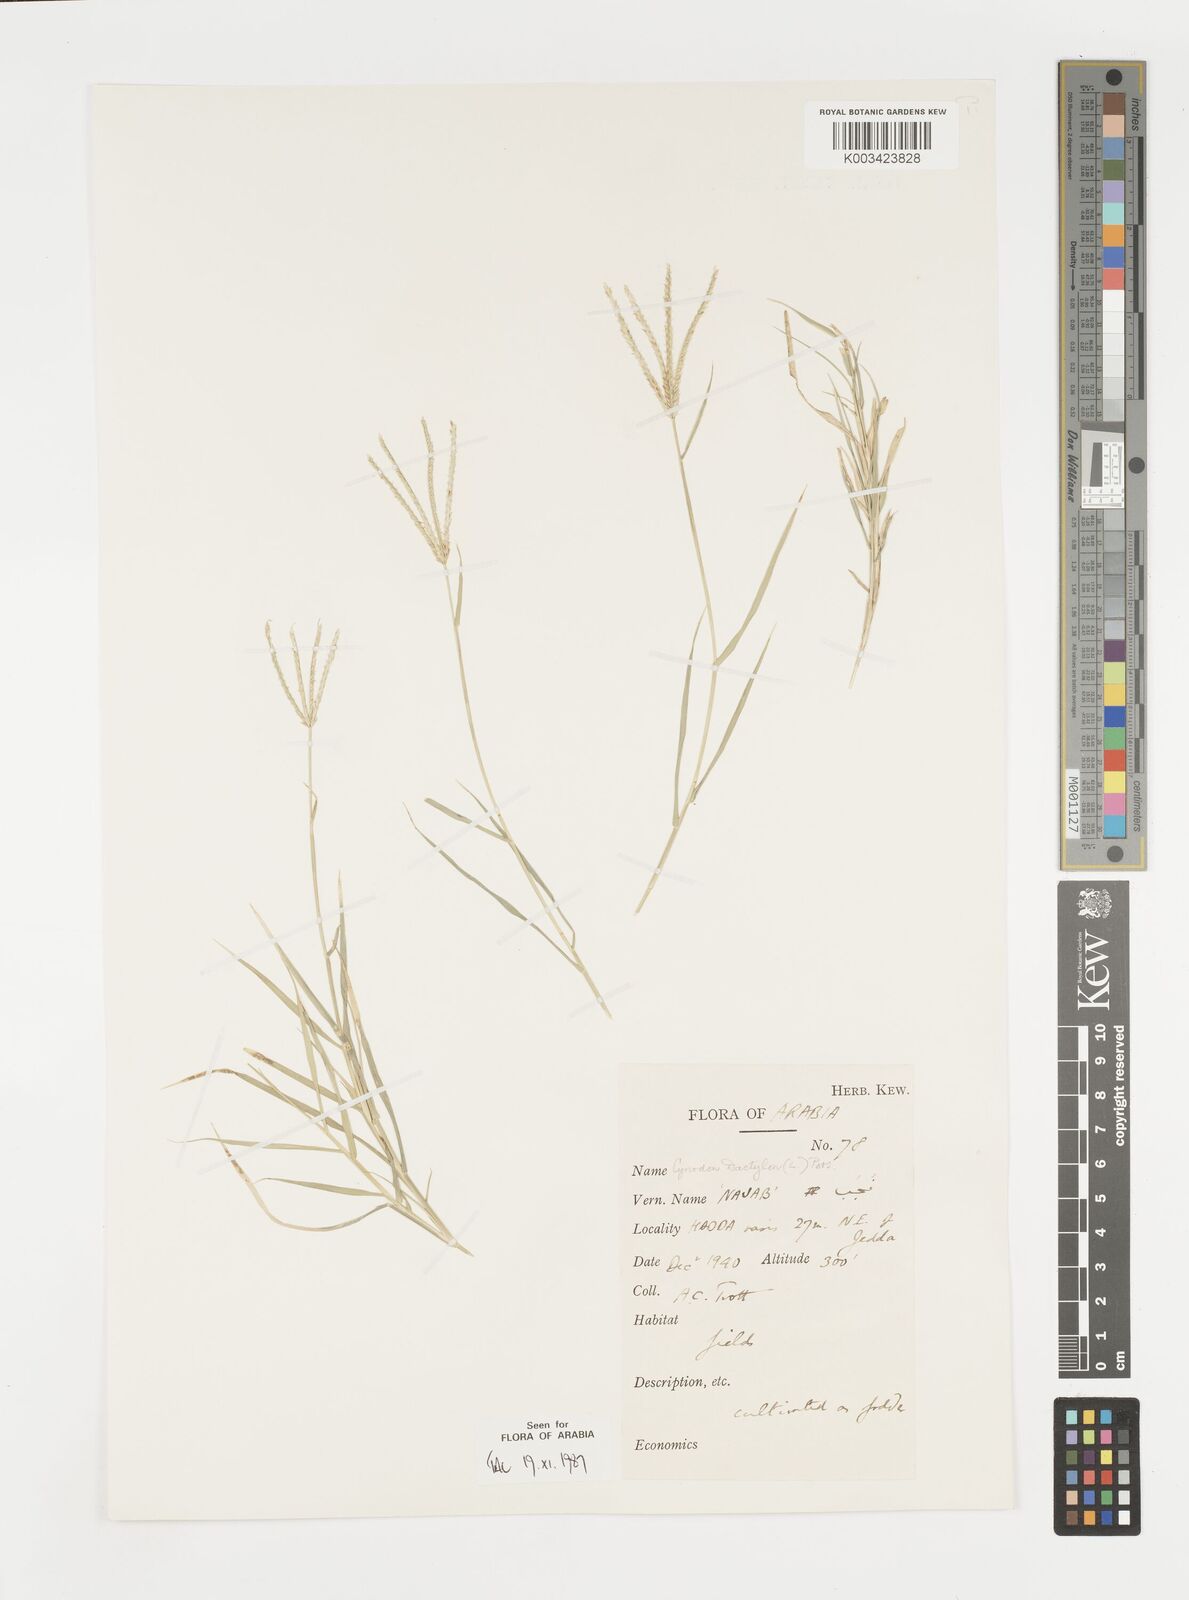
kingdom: Plantae
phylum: Tracheophyta
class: Liliopsida
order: Poales
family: Poaceae
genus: Cynodon
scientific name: Cynodon dactylon
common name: Bermuda grass
